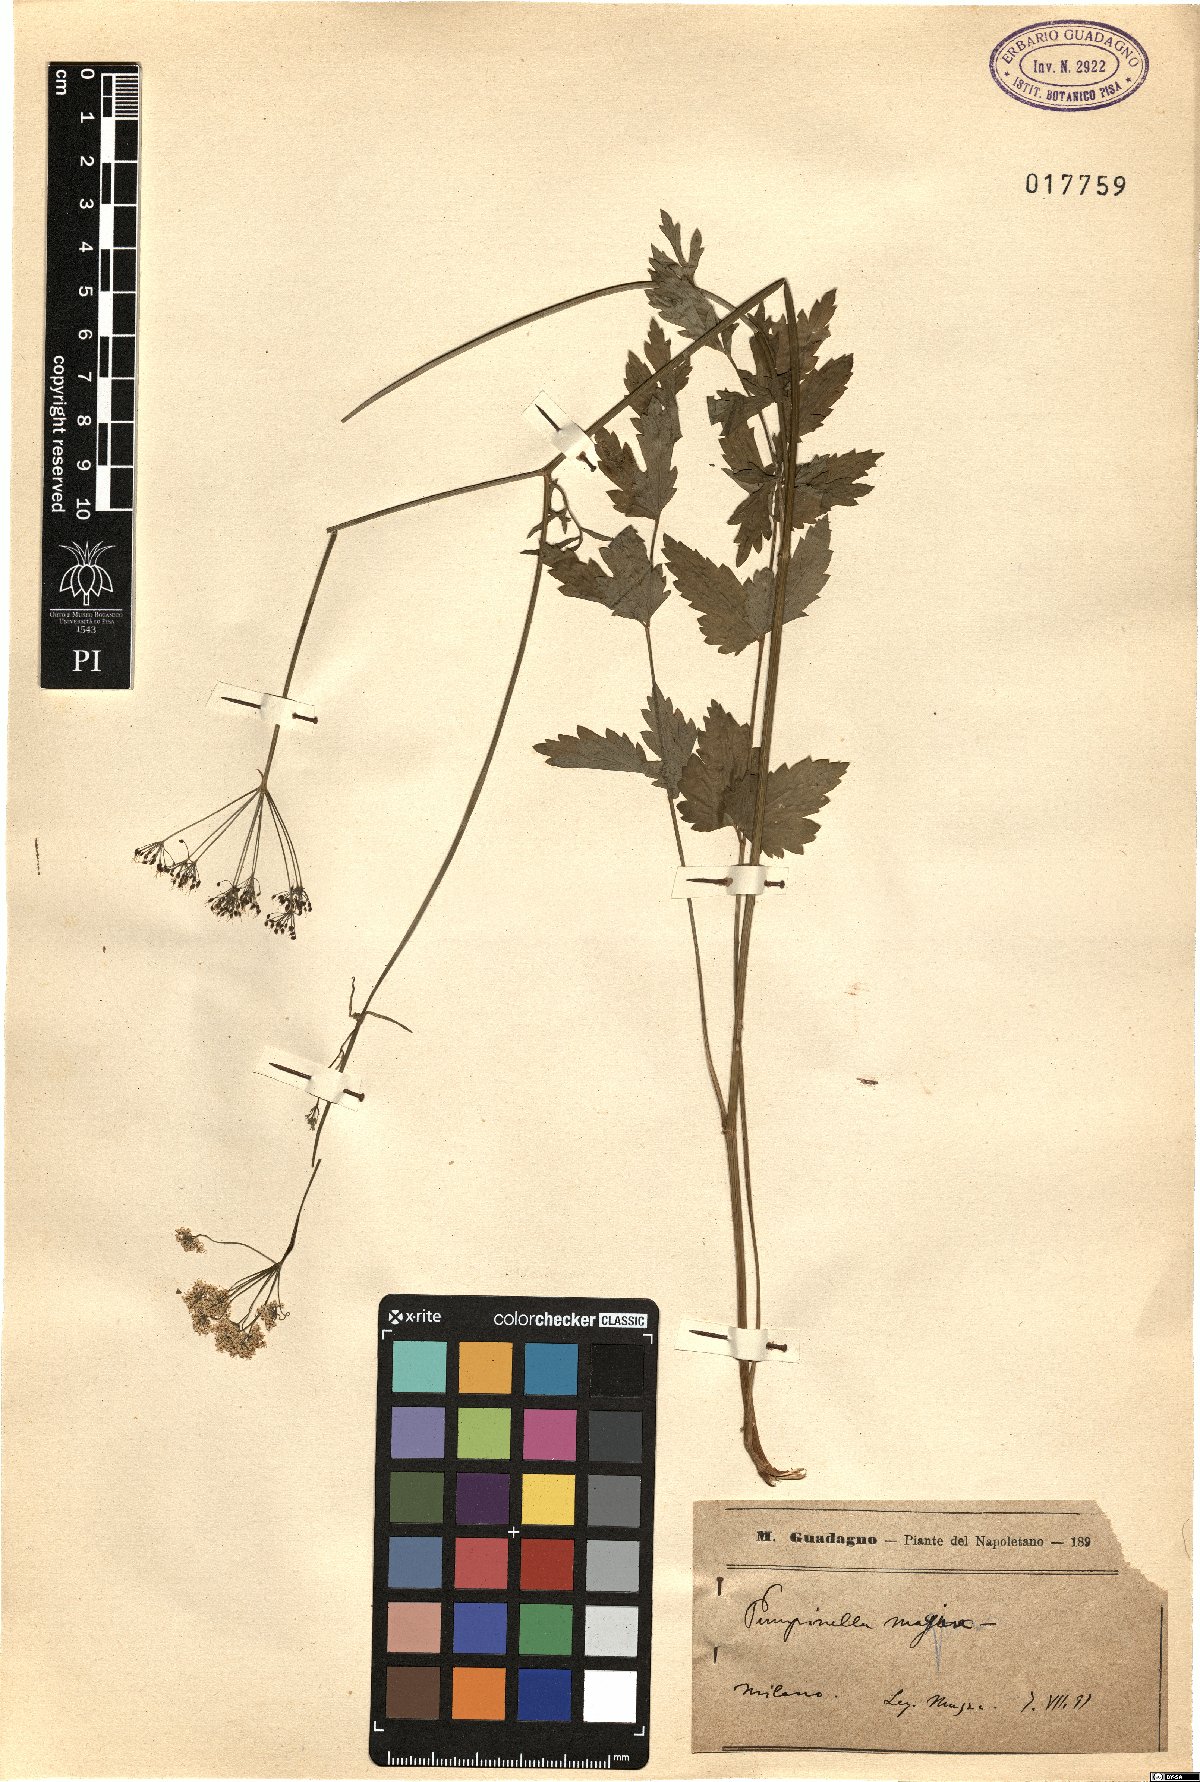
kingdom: Plantae
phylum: Tracheophyta
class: Magnoliopsida
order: Apiales
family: Apiaceae
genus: Pimpinella
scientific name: Pimpinella major
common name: Greater burnet-saxifrage
